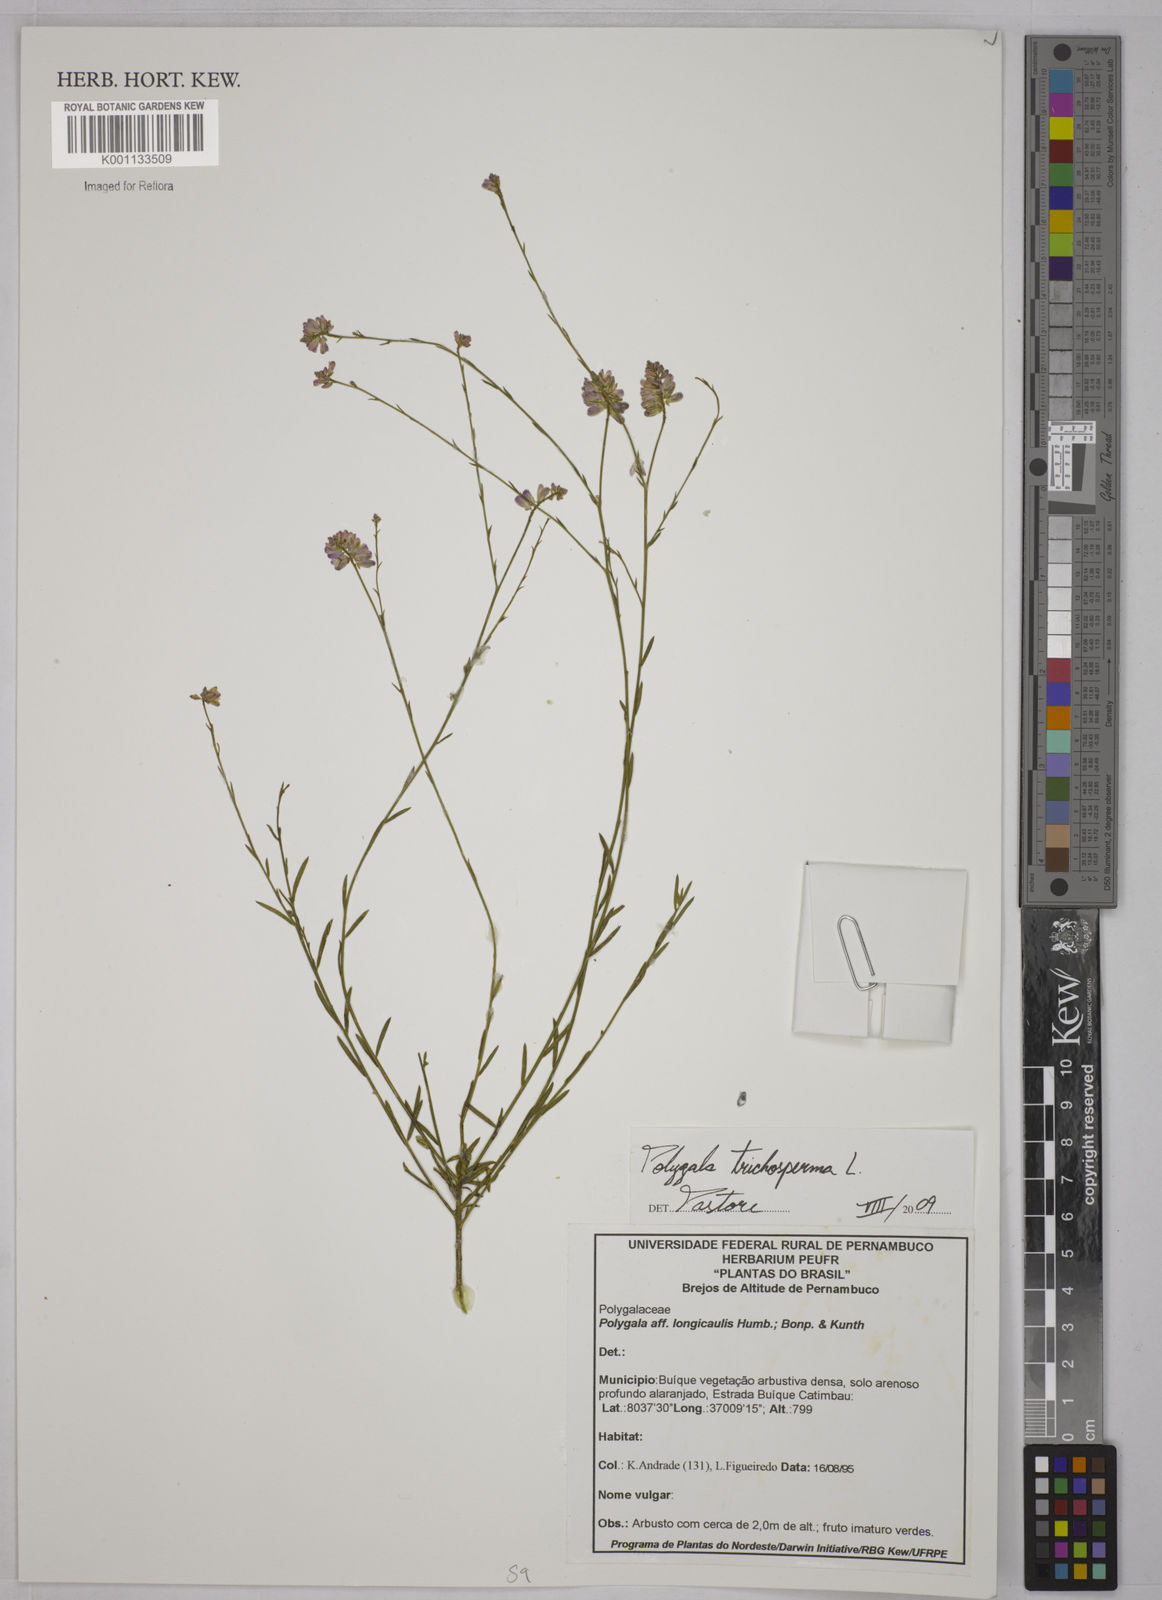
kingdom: Plantae
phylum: Tracheophyta
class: Magnoliopsida
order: Fabales
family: Polygalaceae
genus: Polygala
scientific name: Polygala trichosperma
